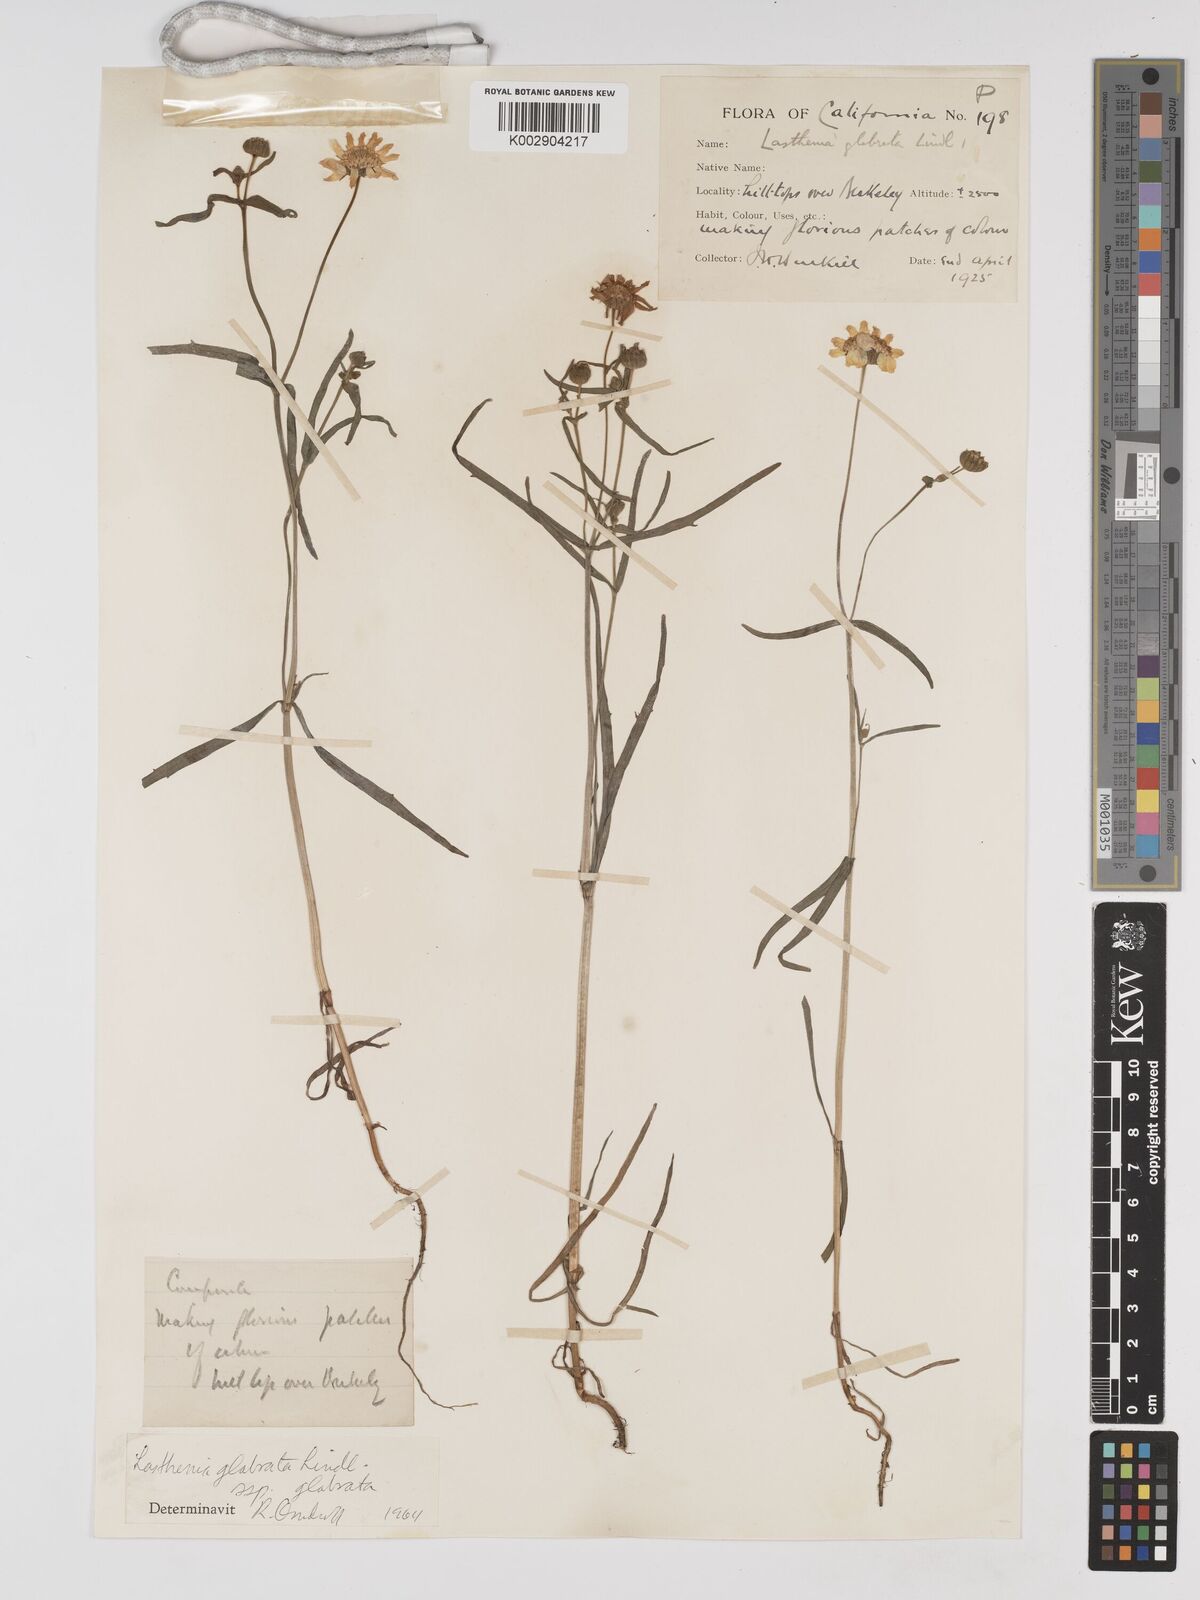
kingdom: Plantae
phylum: Tracheophyta
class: Magnoliopsida
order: Asterales
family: Asteraceae
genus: Lasthenia
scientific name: Lasthenia glabrata
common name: Yellow-ray lasthenia
